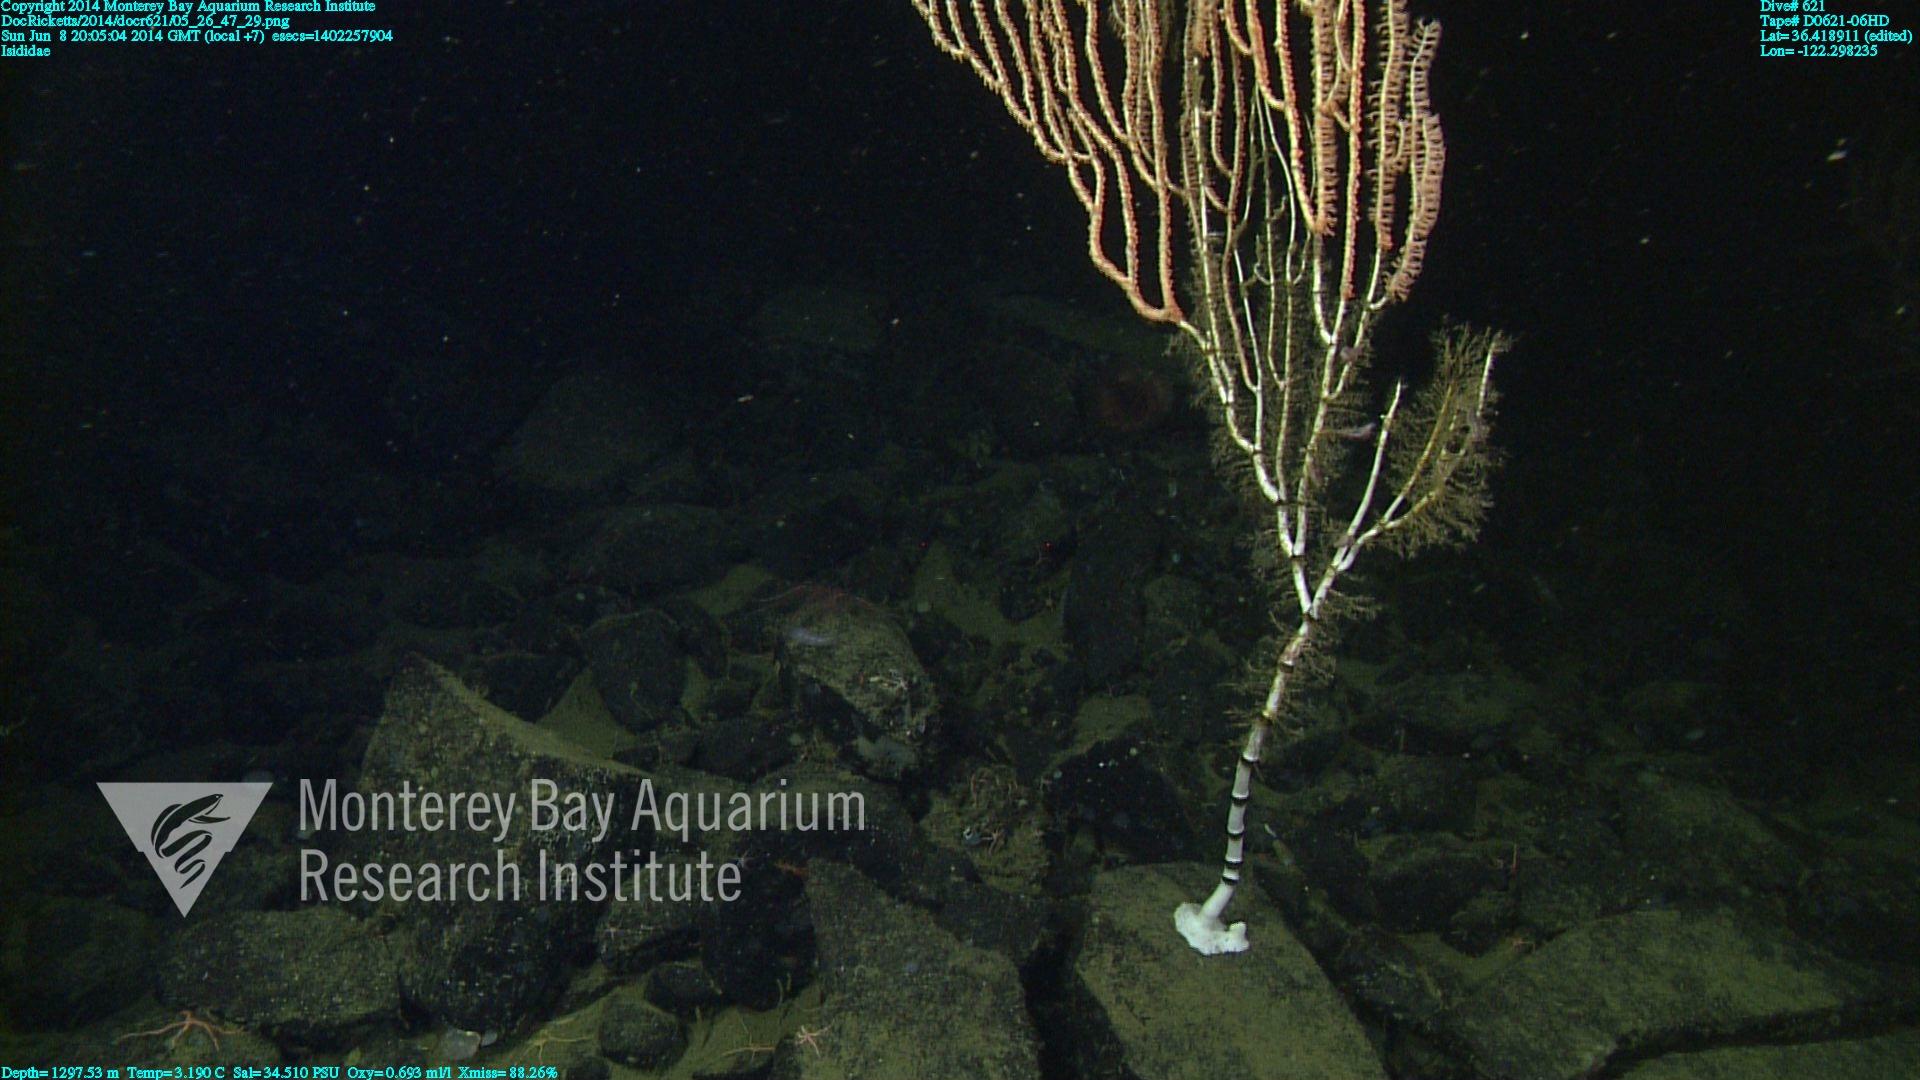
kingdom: Animalia
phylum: Cnidaria
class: Anthozoa
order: Scleralcyonacea
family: Keratoisididae
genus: Isidella
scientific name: Isidella
